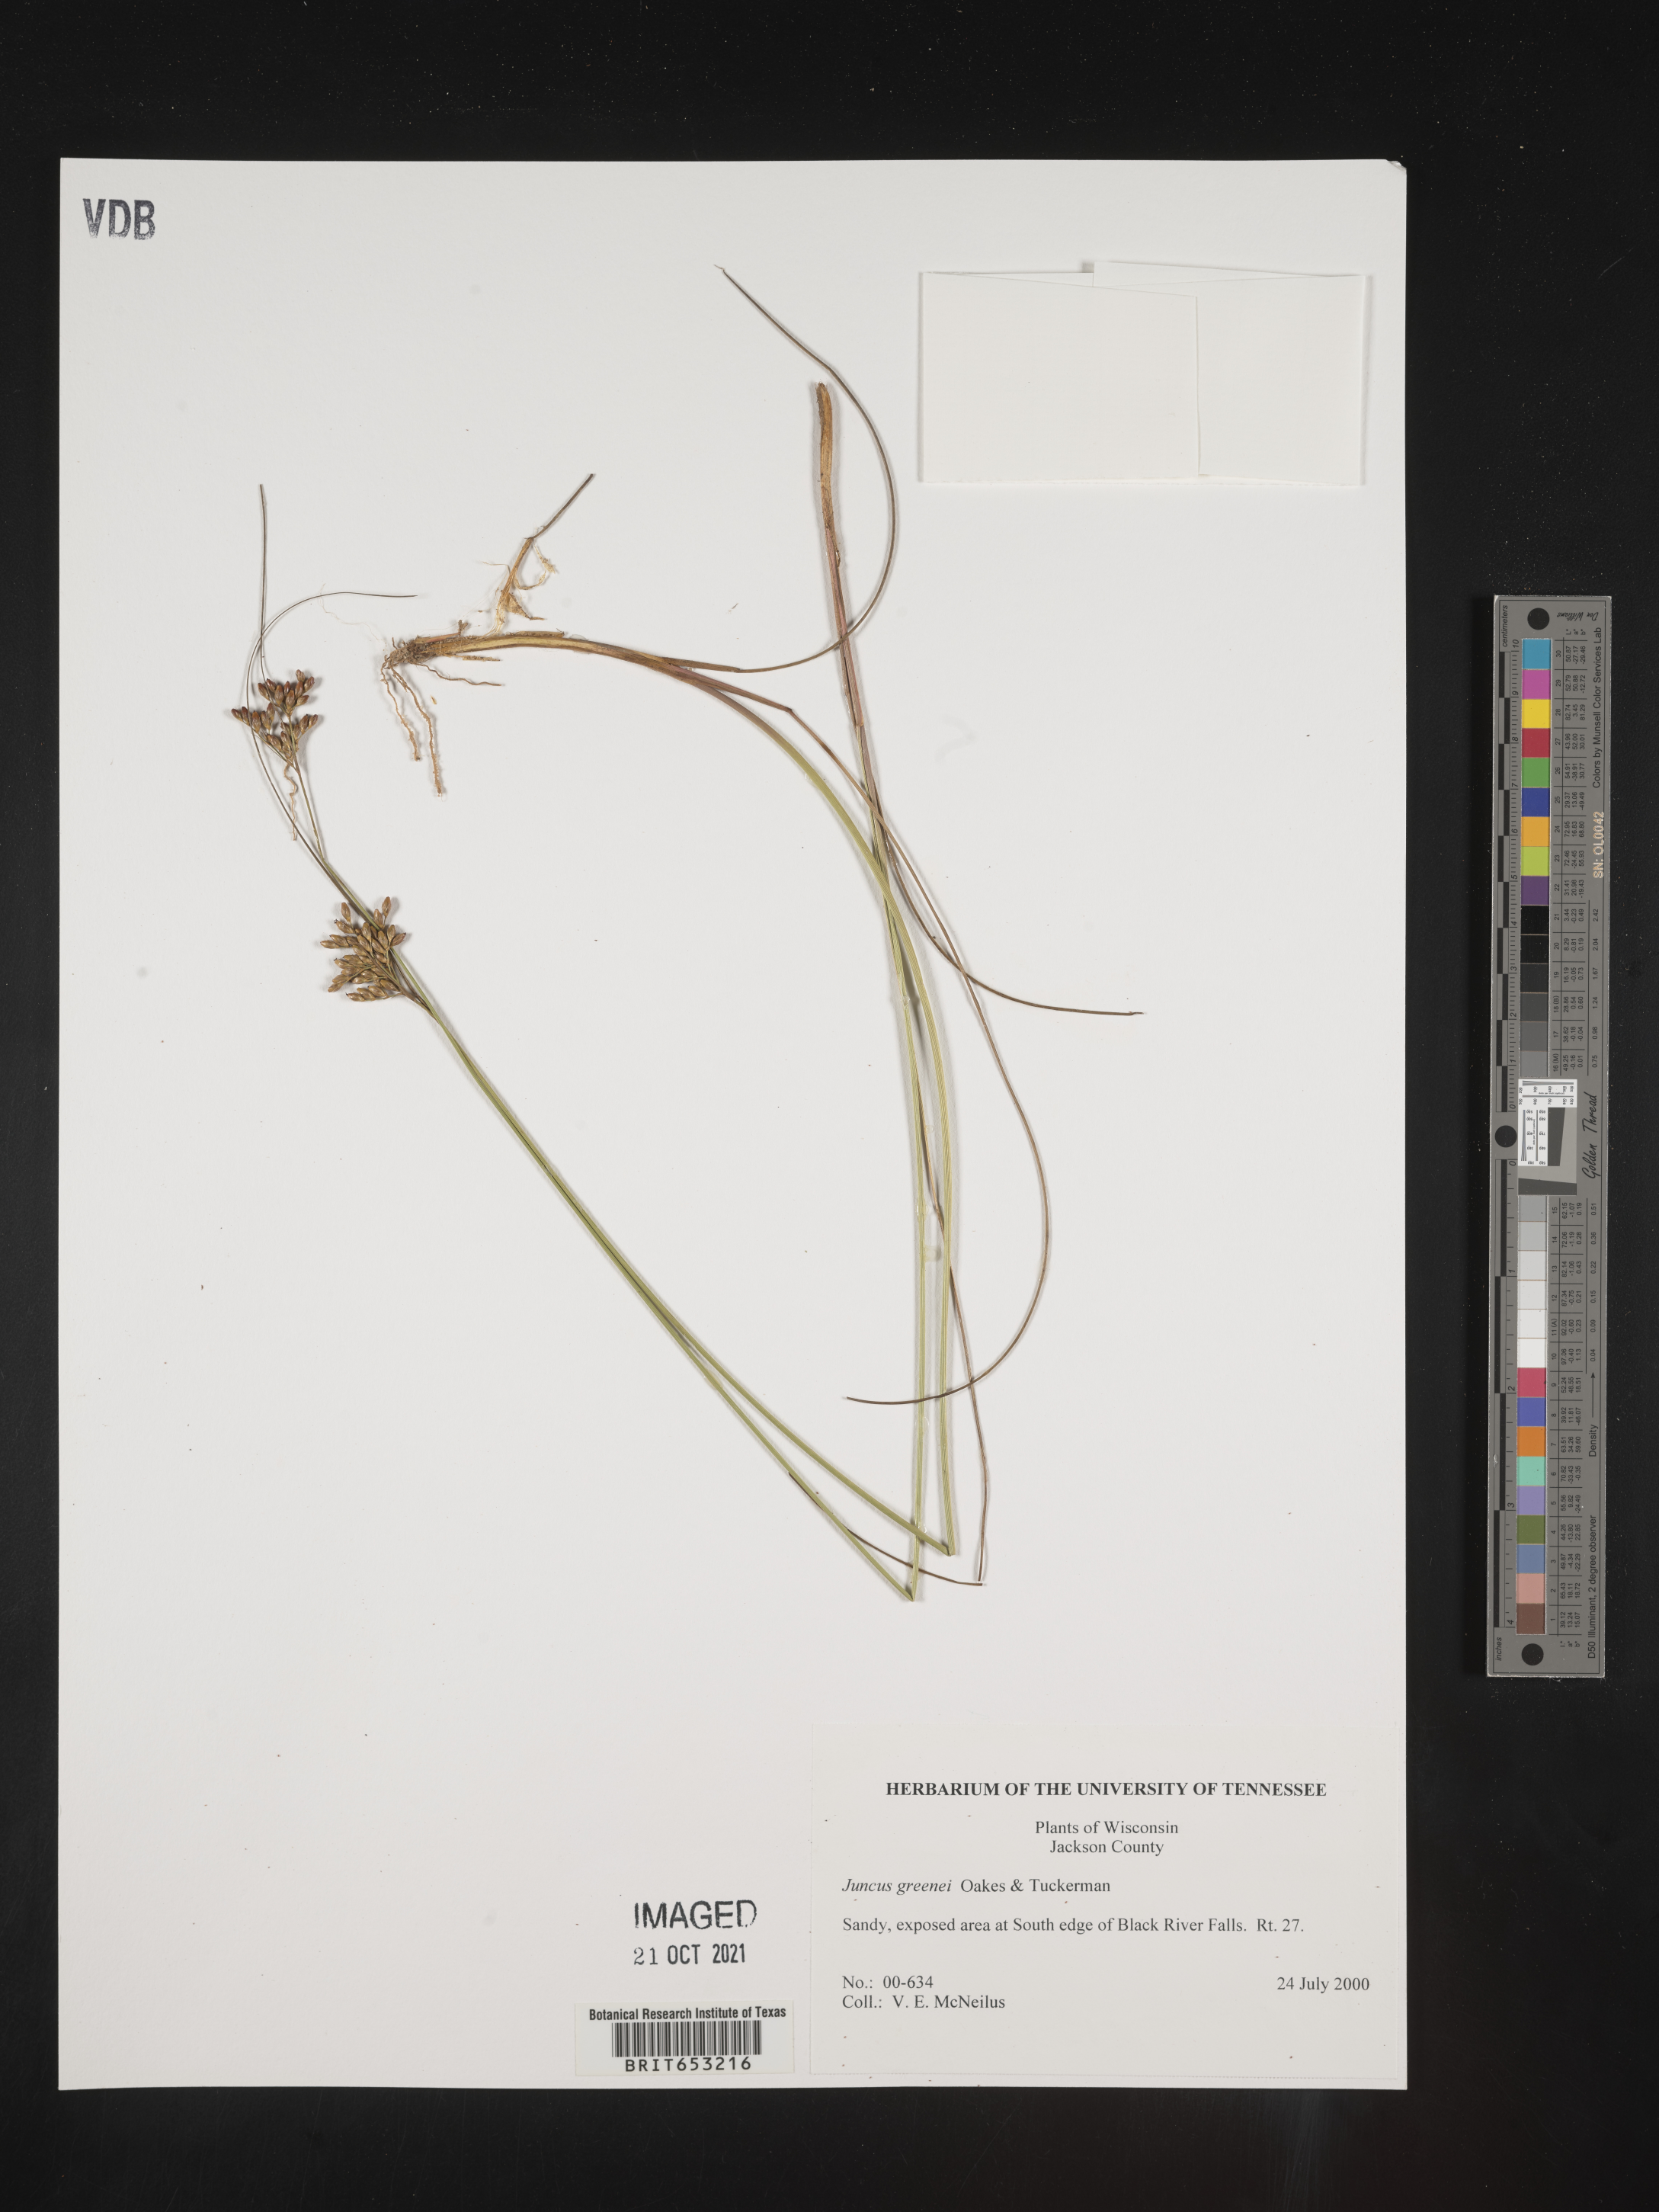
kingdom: Plantae
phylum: Tracheophyta
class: Liliopsida
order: Poales
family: Juncaceae
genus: Juncus
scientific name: Juncus greenei
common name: Greene's rush
